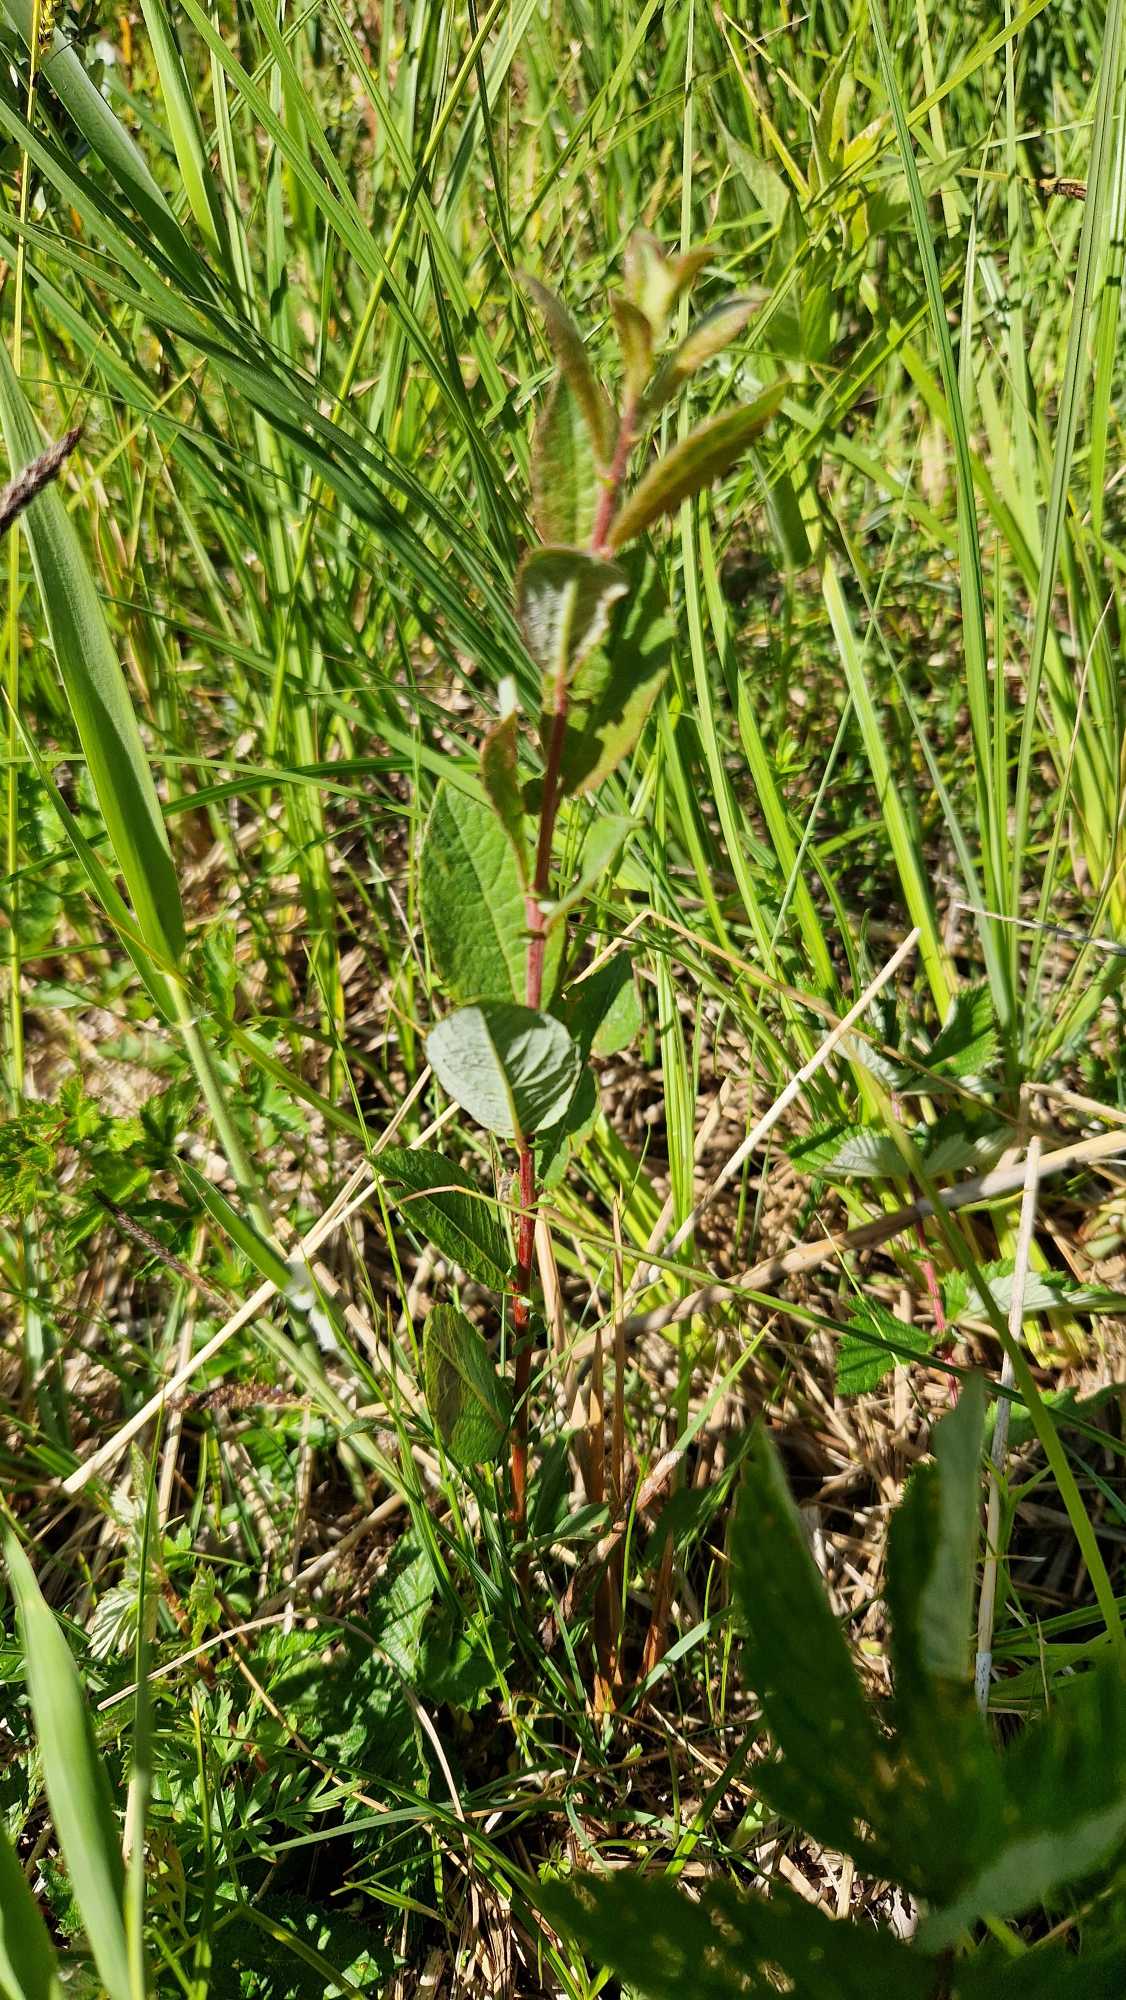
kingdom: Plantae
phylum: Tracheophyta
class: Magnoliopsida
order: Malpighiales
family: Salicaceae
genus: Salix
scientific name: Salix myrsinifolia
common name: Sort pil
